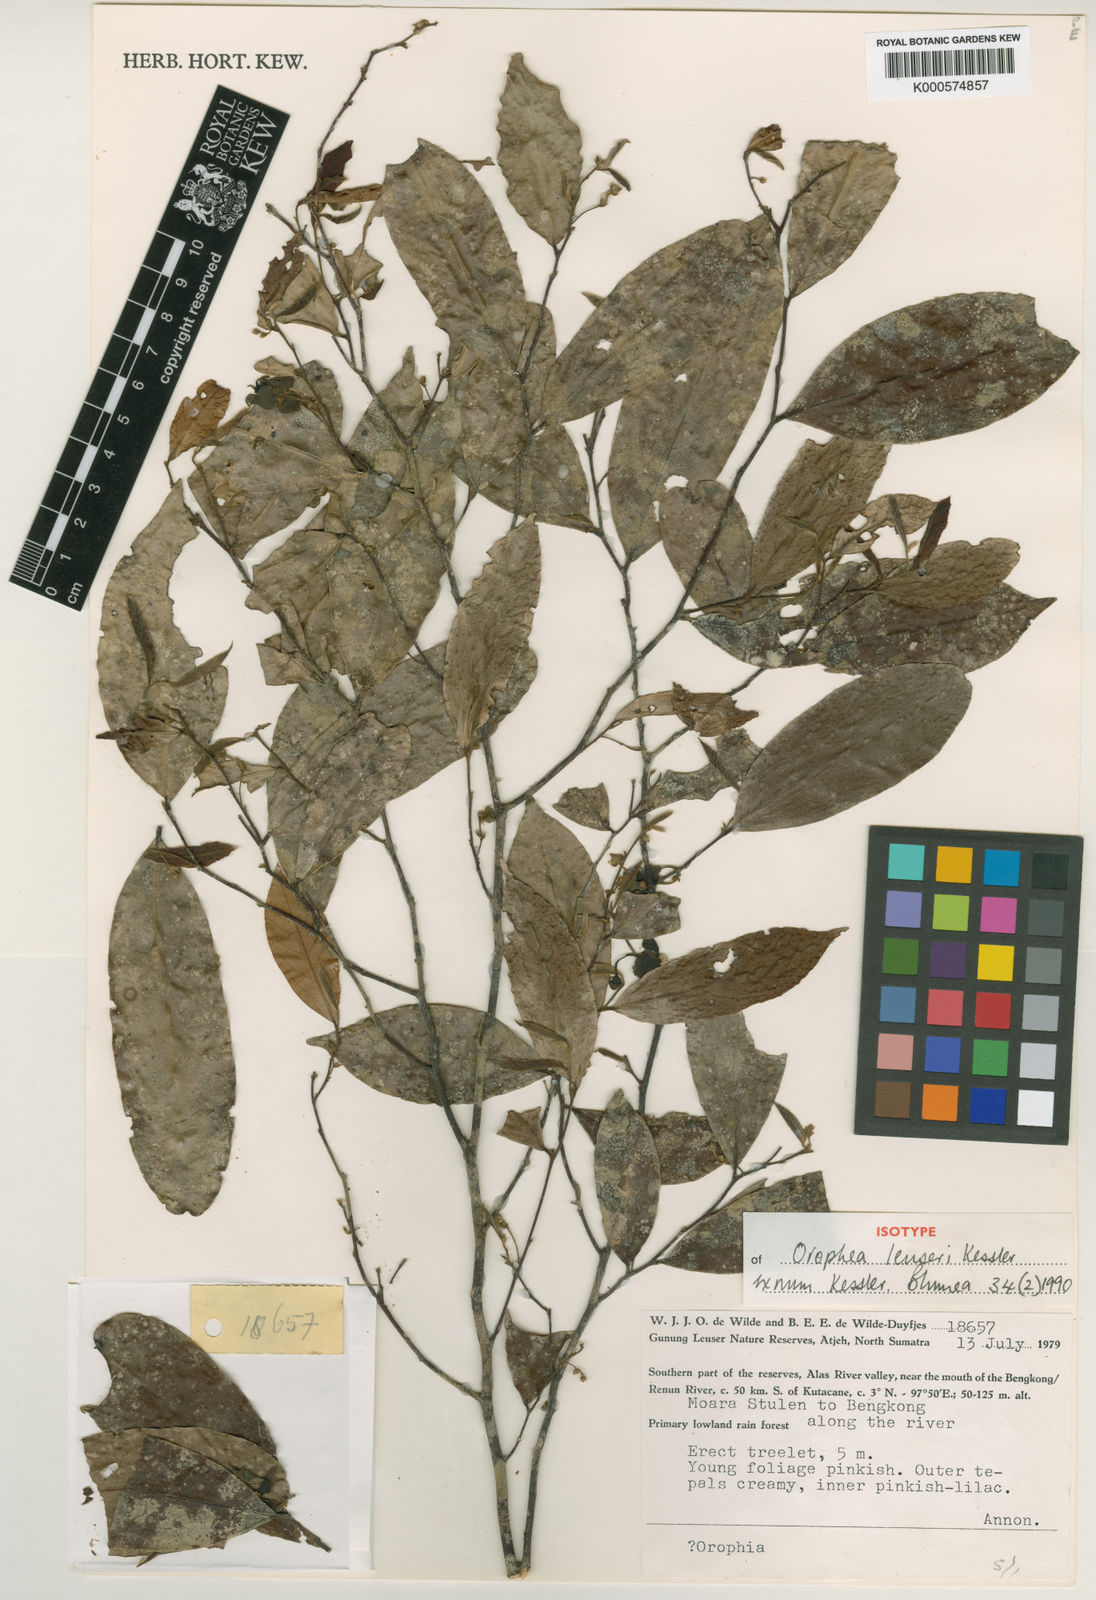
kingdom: Plantae
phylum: Tracheophyta
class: Magnoliopsida
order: Magnoliales
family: Annonaceae
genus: Orophea
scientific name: Orophea leuseri
